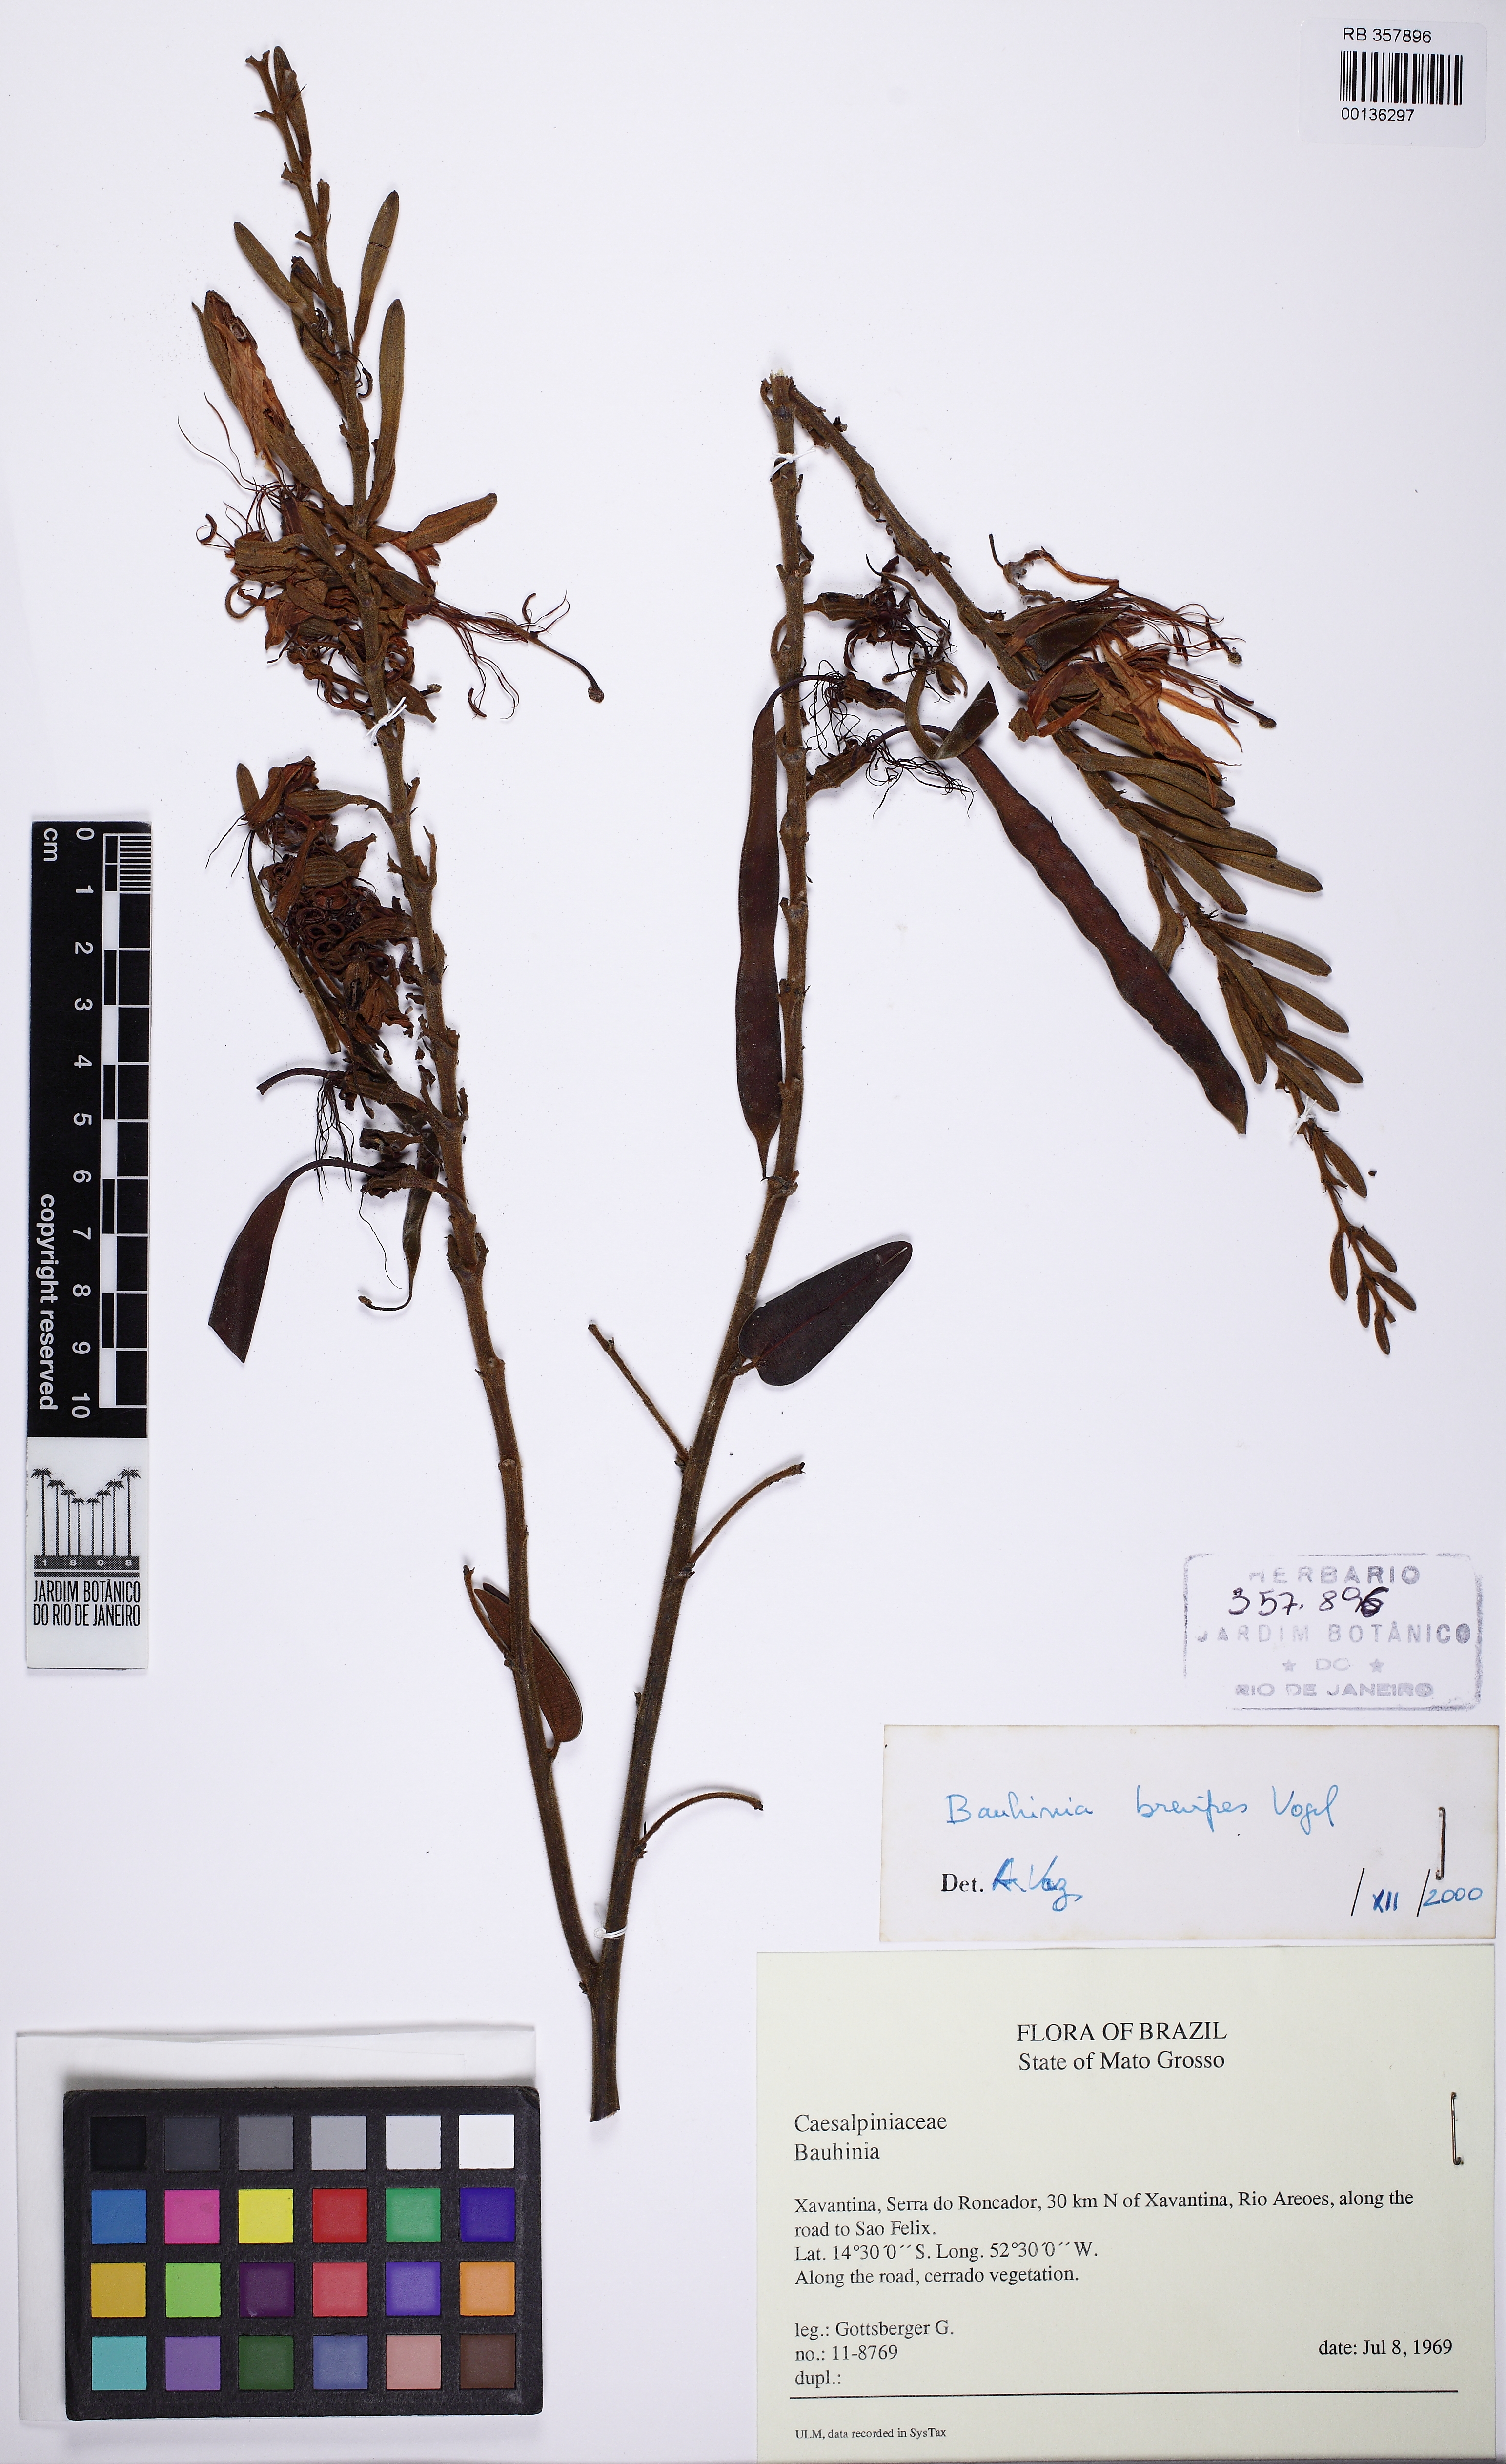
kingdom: Plantae
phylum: Tracheophyta
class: Magnoliopsida
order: Fabales
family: Fabaceae
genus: Bauhinia
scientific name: Bauhinia brevipes
